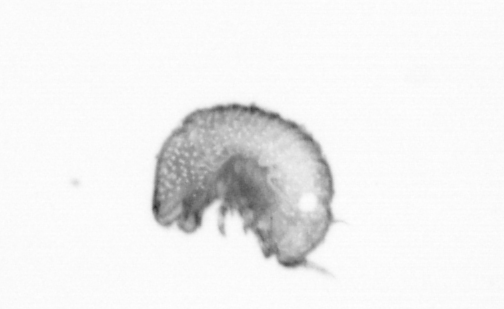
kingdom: Animalia
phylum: Annelida
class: Polychaeta
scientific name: Polychaeta
